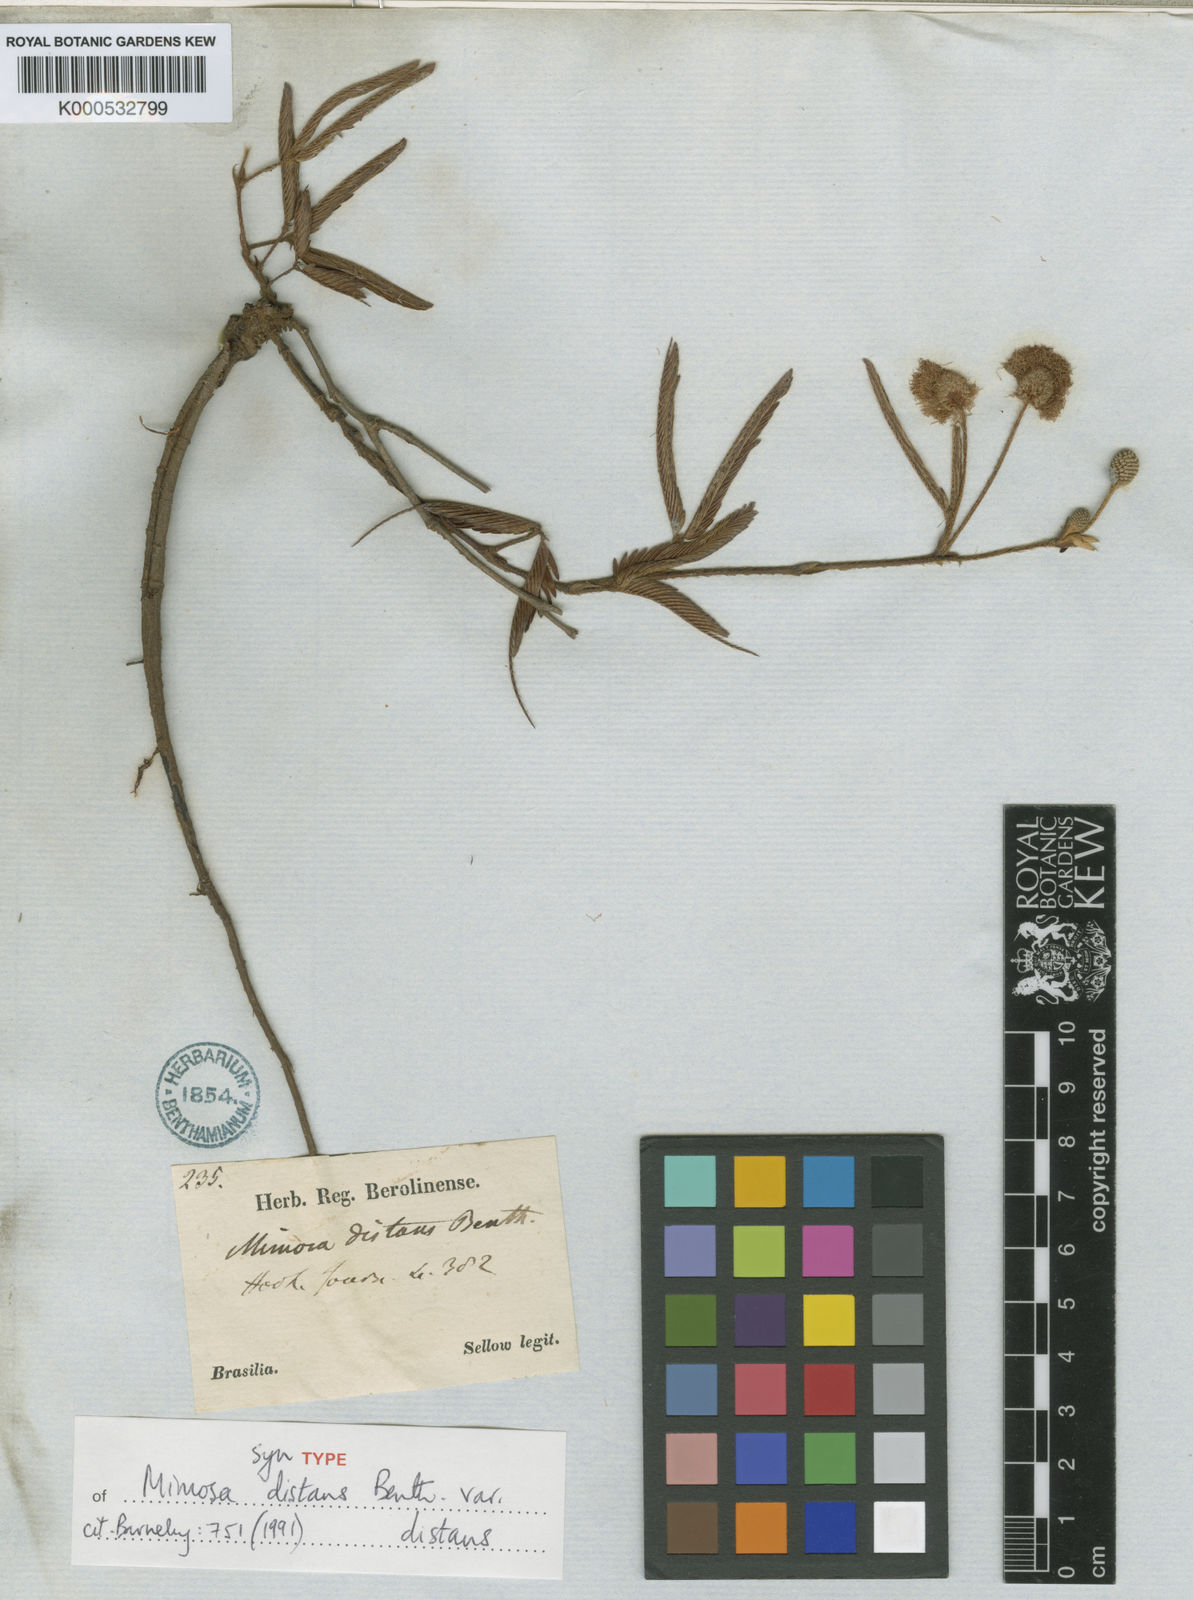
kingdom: Plantae
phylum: Tracheophyta
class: Magnoliopsida
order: Fabales
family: Fabaceae
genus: Mimosa
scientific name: Mimosa distans
